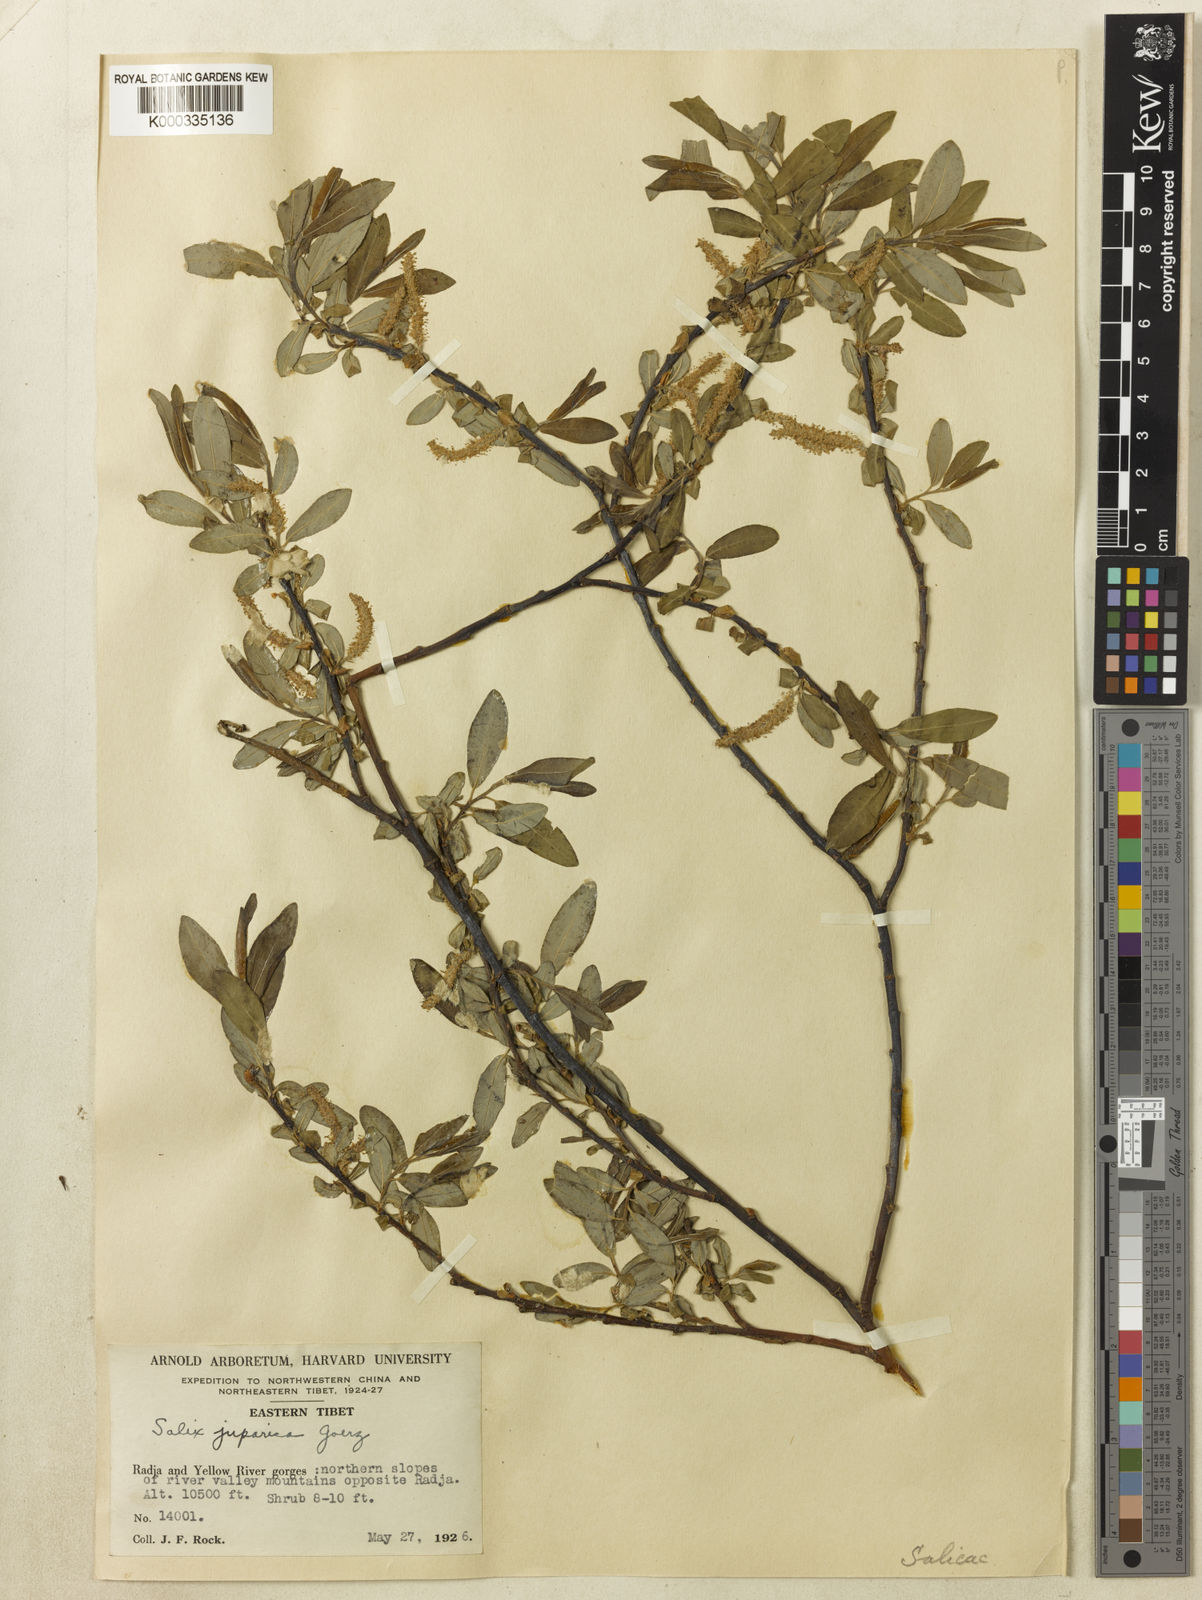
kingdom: Plantae
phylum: Tracheophyta
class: Magnoliopsida
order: Malpighiales
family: Salicaceae
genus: Salix
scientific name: Salix
